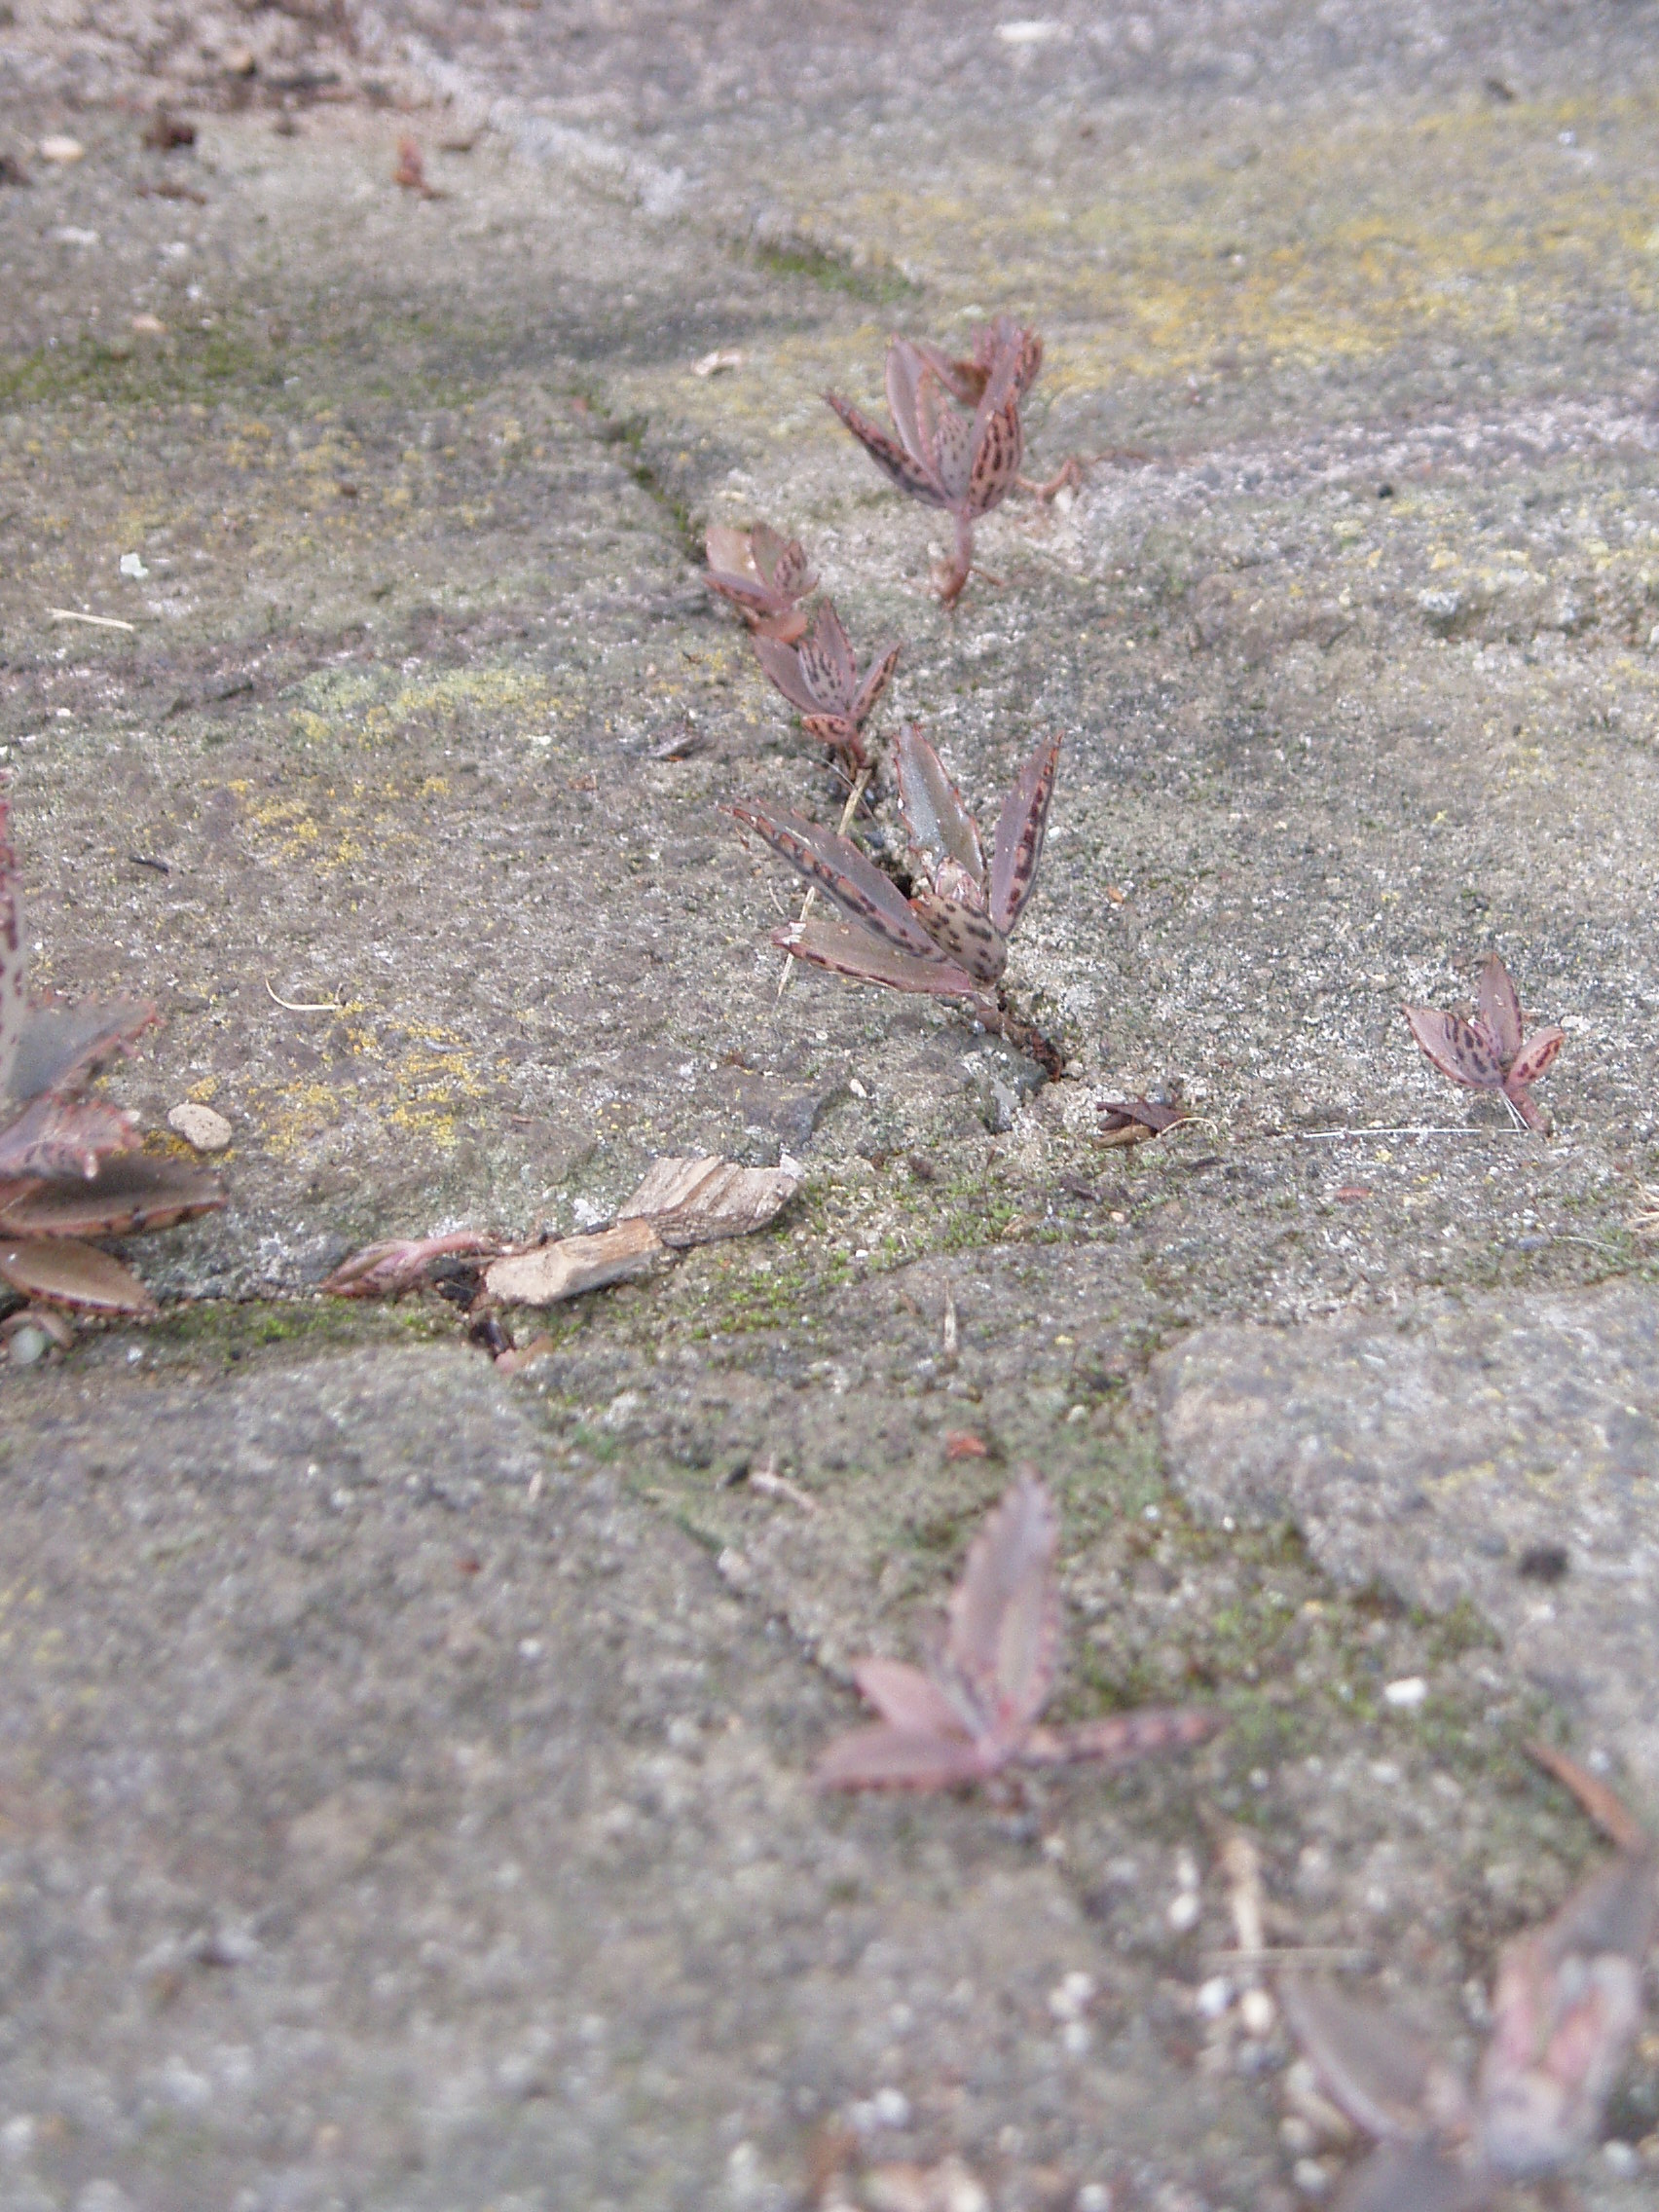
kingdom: Plantae
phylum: Tracheophyta
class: Magnoliopsida
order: Saxifragales
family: Crassulaceae
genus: Kalanchoe
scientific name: Kalanchoe houghtonii
